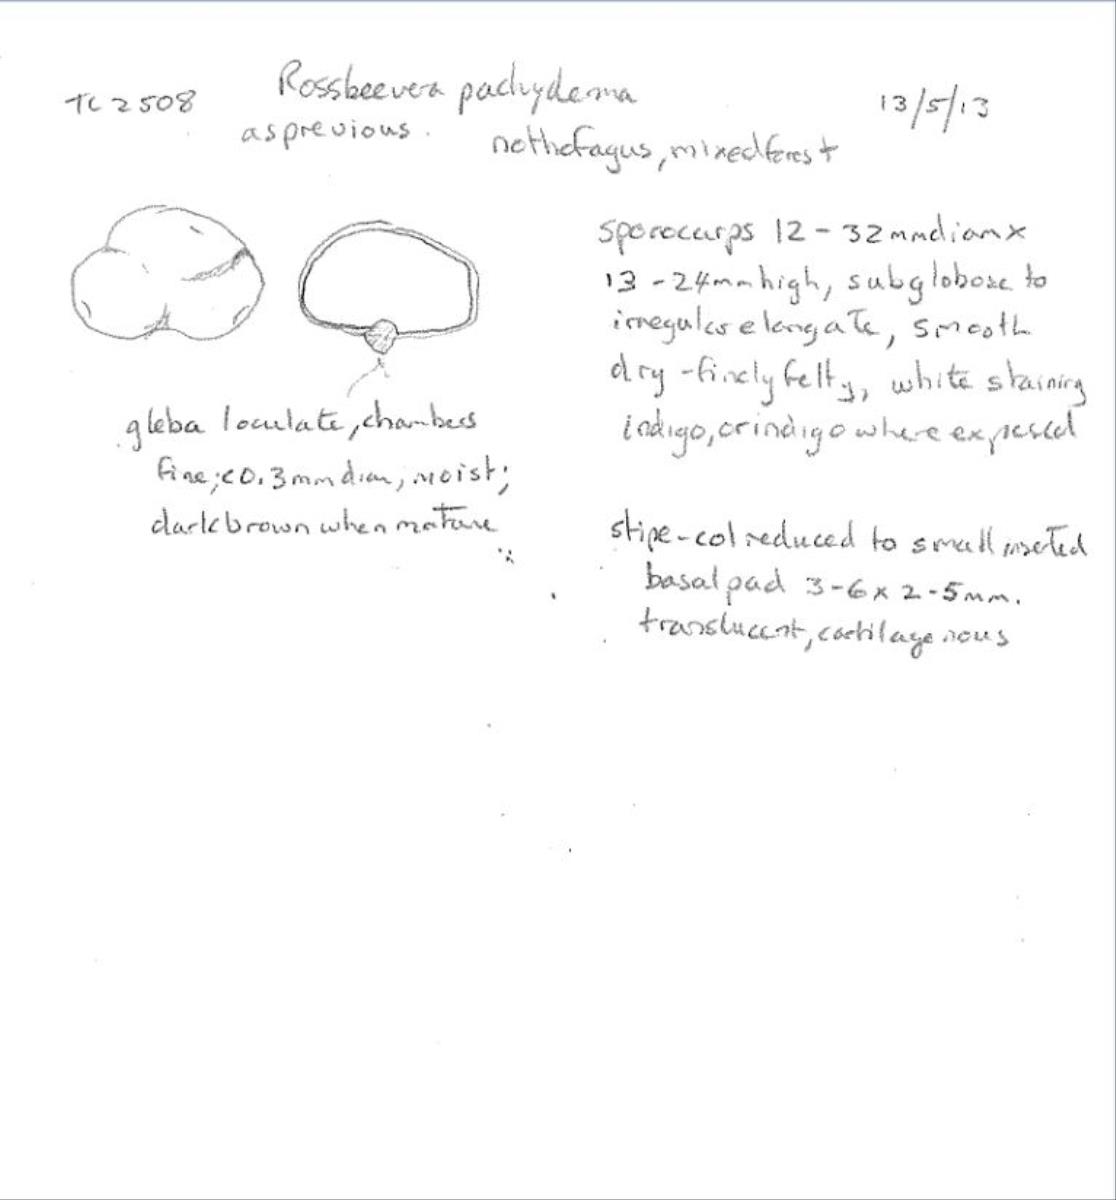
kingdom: Fungi
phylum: Basidiomycota
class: Agaricomycetes
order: Boletales
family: Boletaceae
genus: Leccinum
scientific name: Leccinum pachyderme
